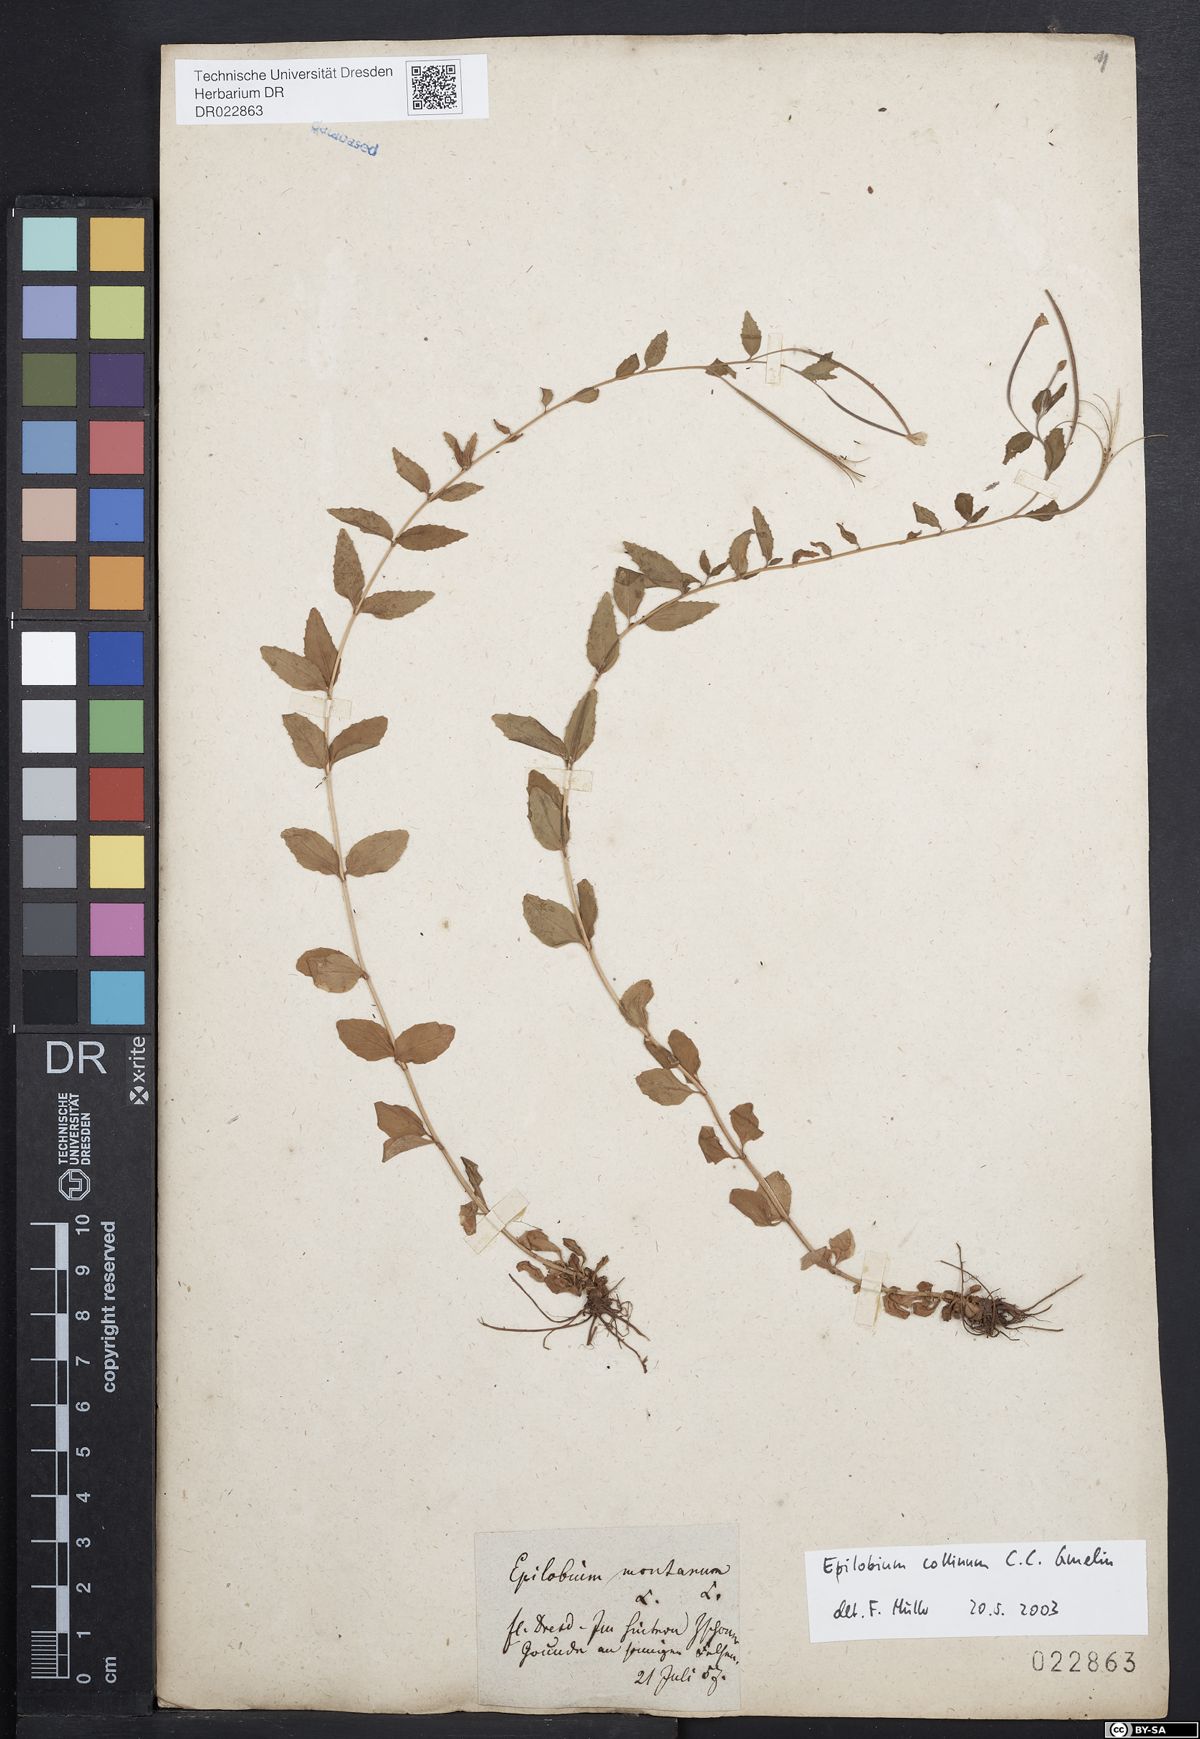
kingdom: Plantae
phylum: Tracheophyta
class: Magnoliopsida
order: Myrtales
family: Onagraceae
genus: Epilobium
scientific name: Epilobium collinum
